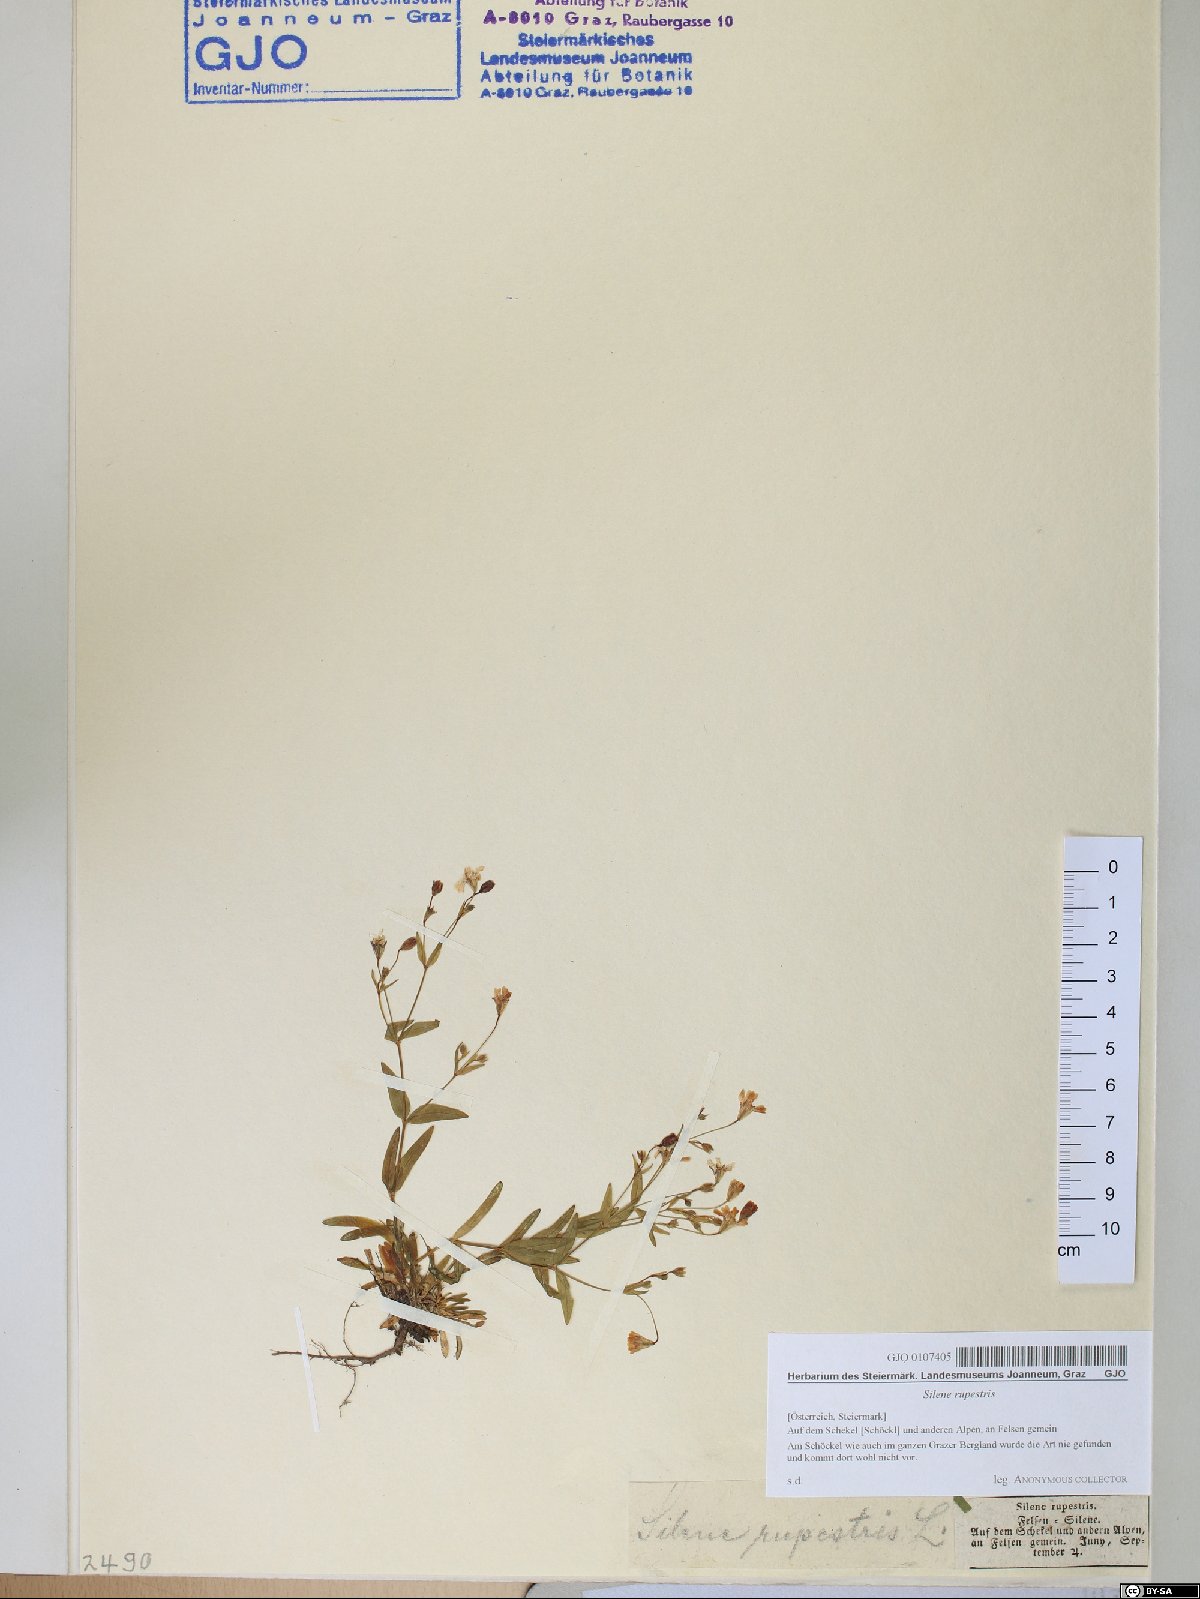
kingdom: Plantae
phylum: Tracheophyta
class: Magnoliopsida
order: Caryophyllales
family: Caryophyllaceae
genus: Atocion
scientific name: Atocion rupestre
